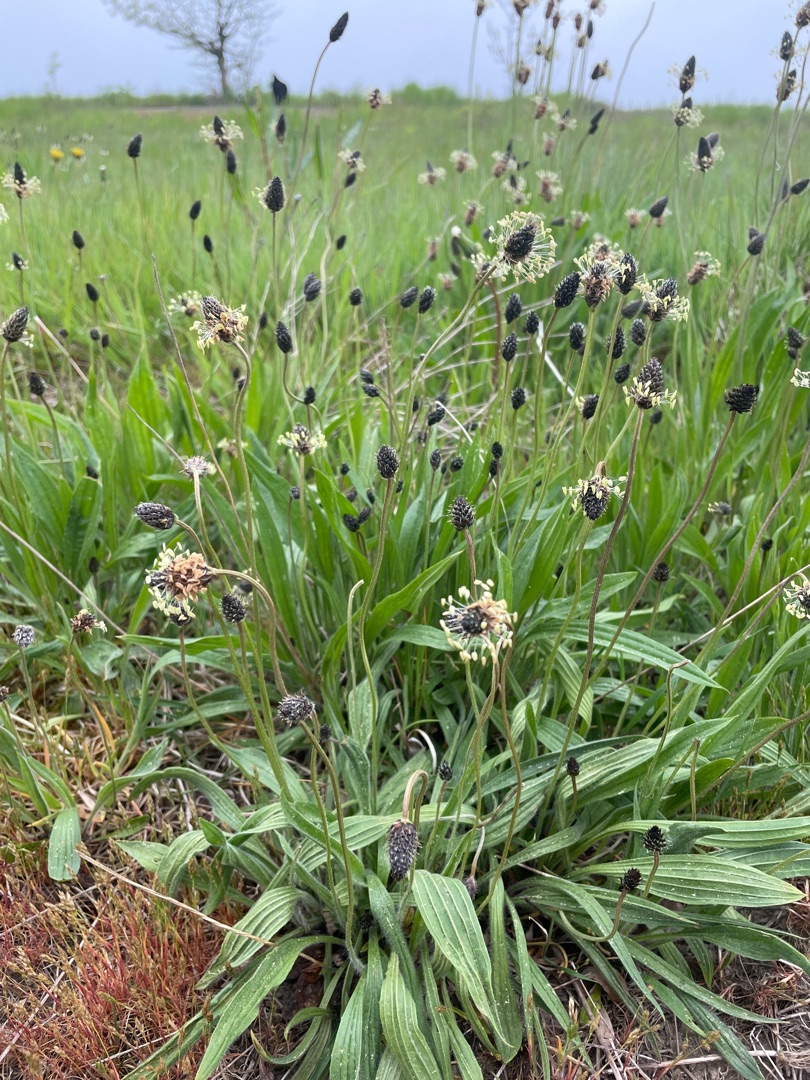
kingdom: Plantae
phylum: Tracheophyta
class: Magnoliopsida
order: Lamiales
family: Plantaginaceae
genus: Plantago
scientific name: Plantago lanceolata
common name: Lancet-vejbred
